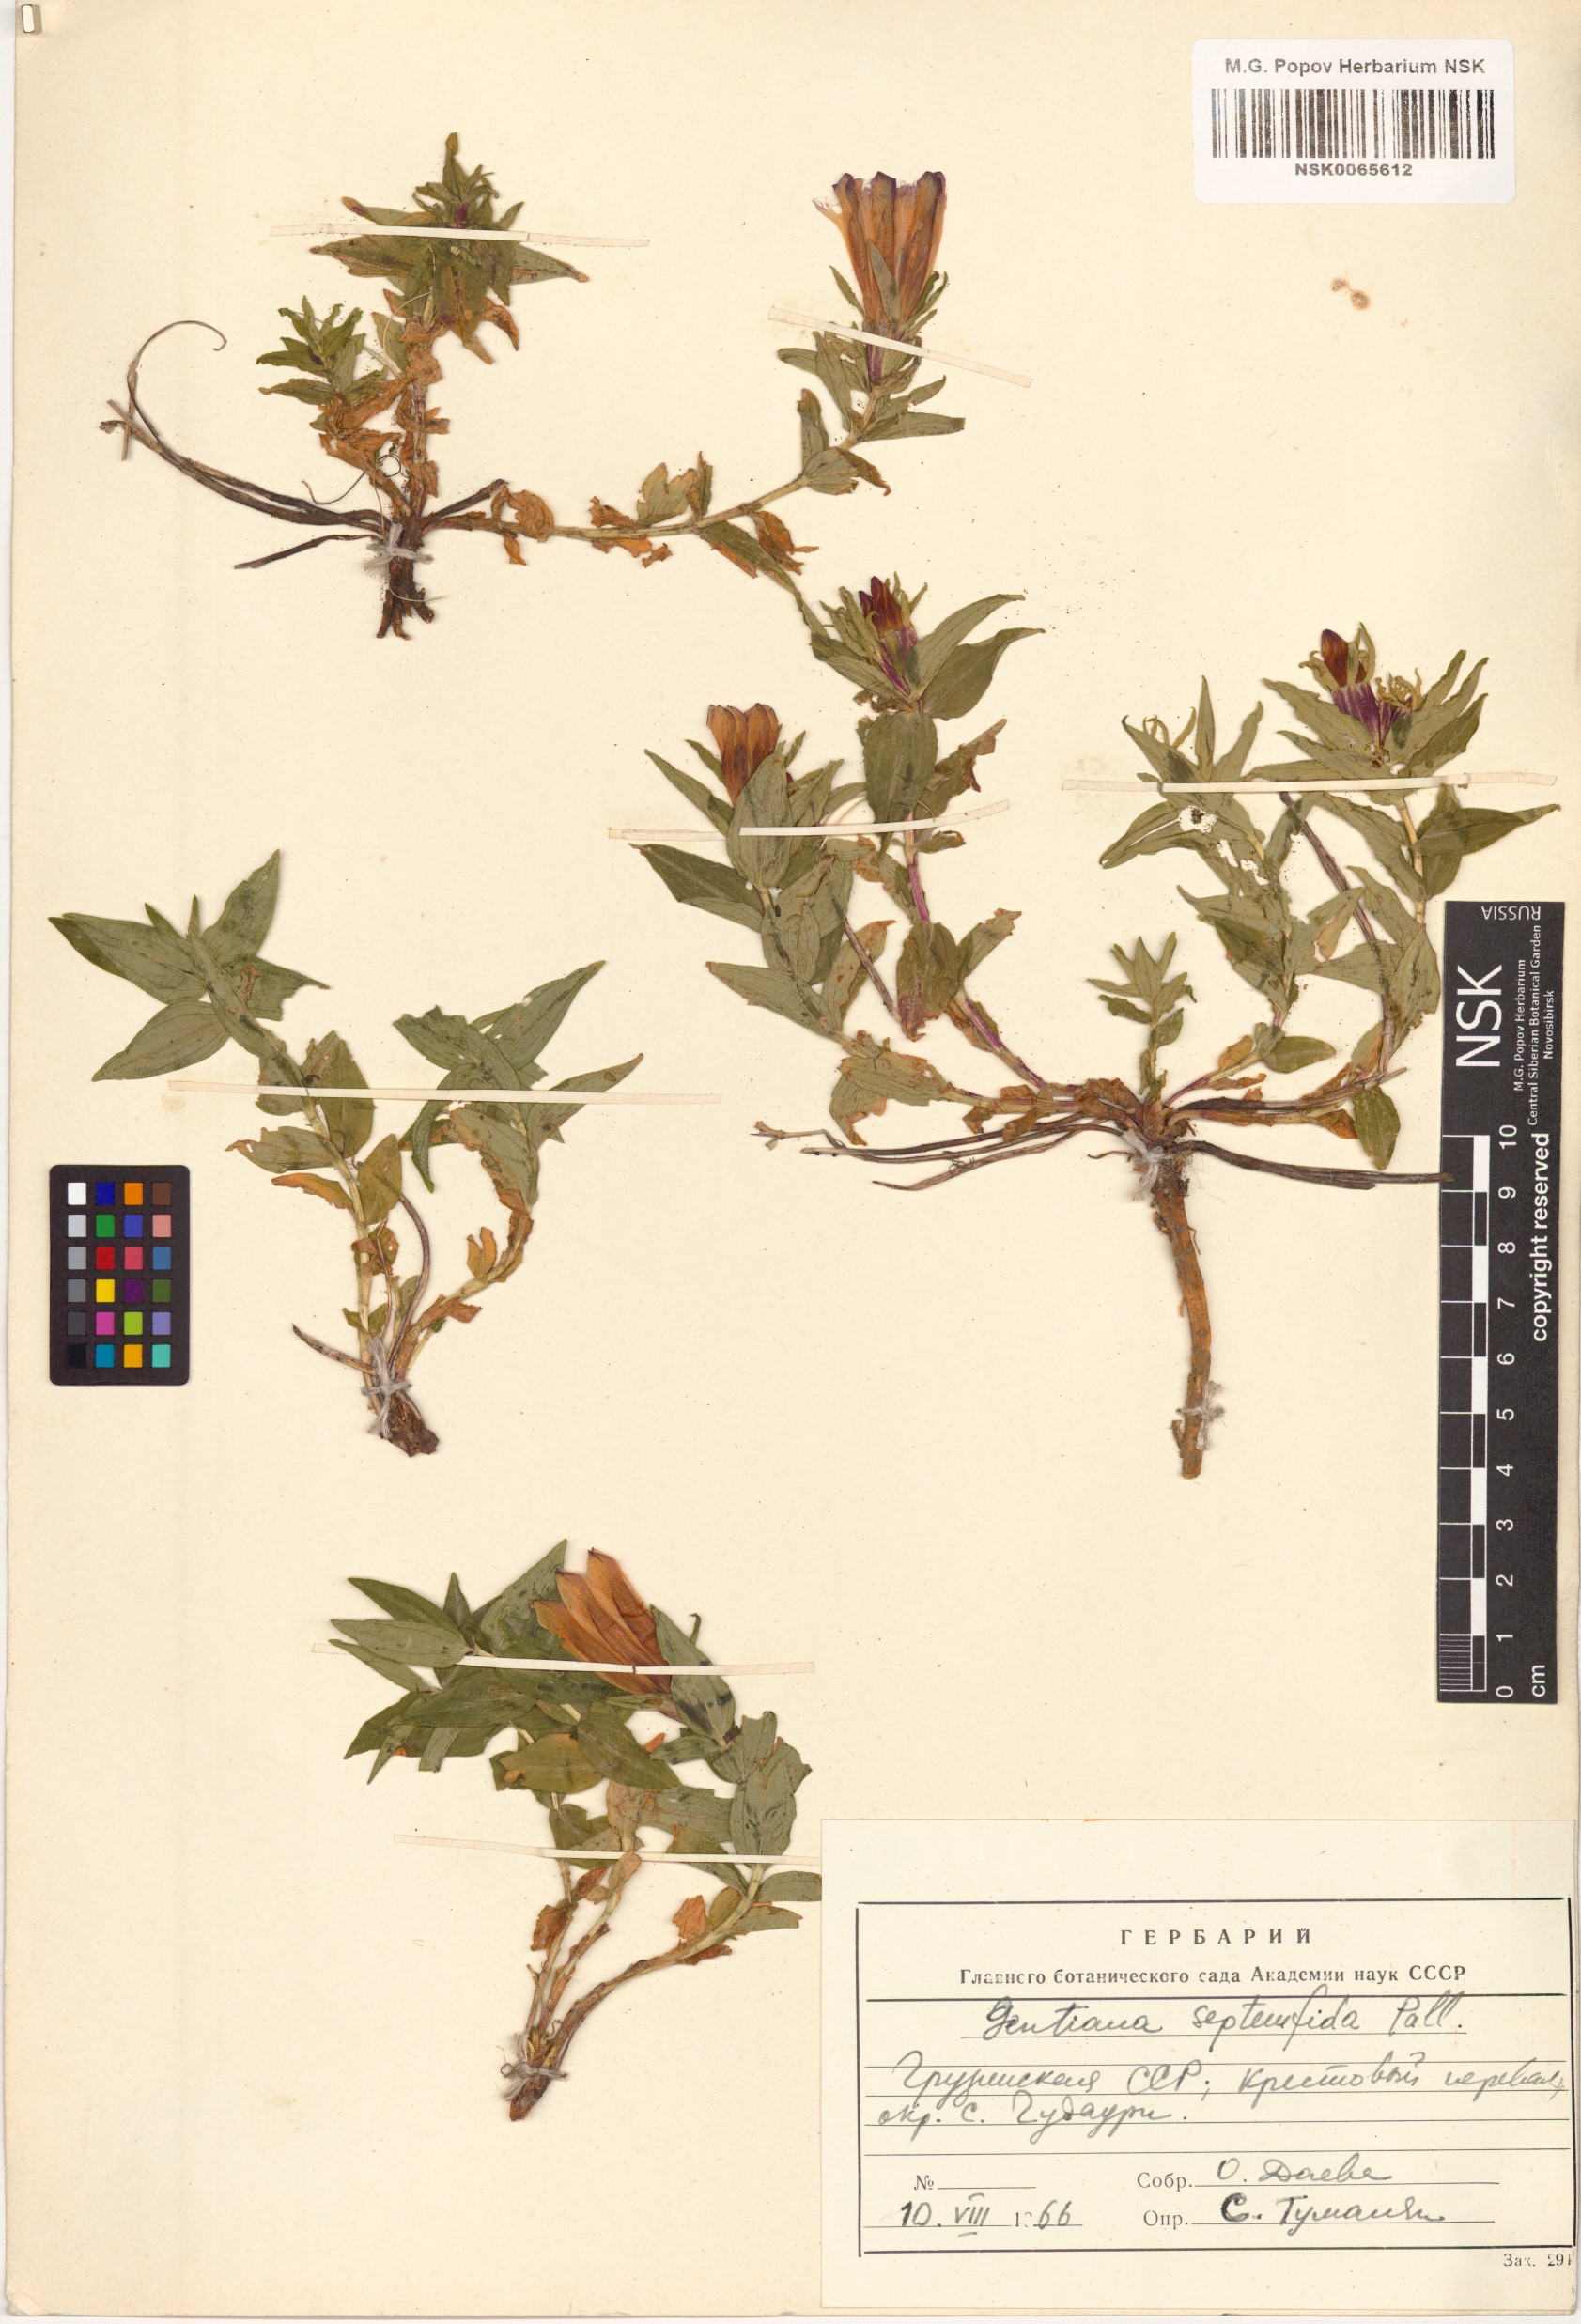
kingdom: Plantae
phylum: Tracheophyta
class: Magnoliopsida
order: Gentianales
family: Gentianaceae
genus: Gentiana
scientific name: Gentiana septemfida
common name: Crested gentian
